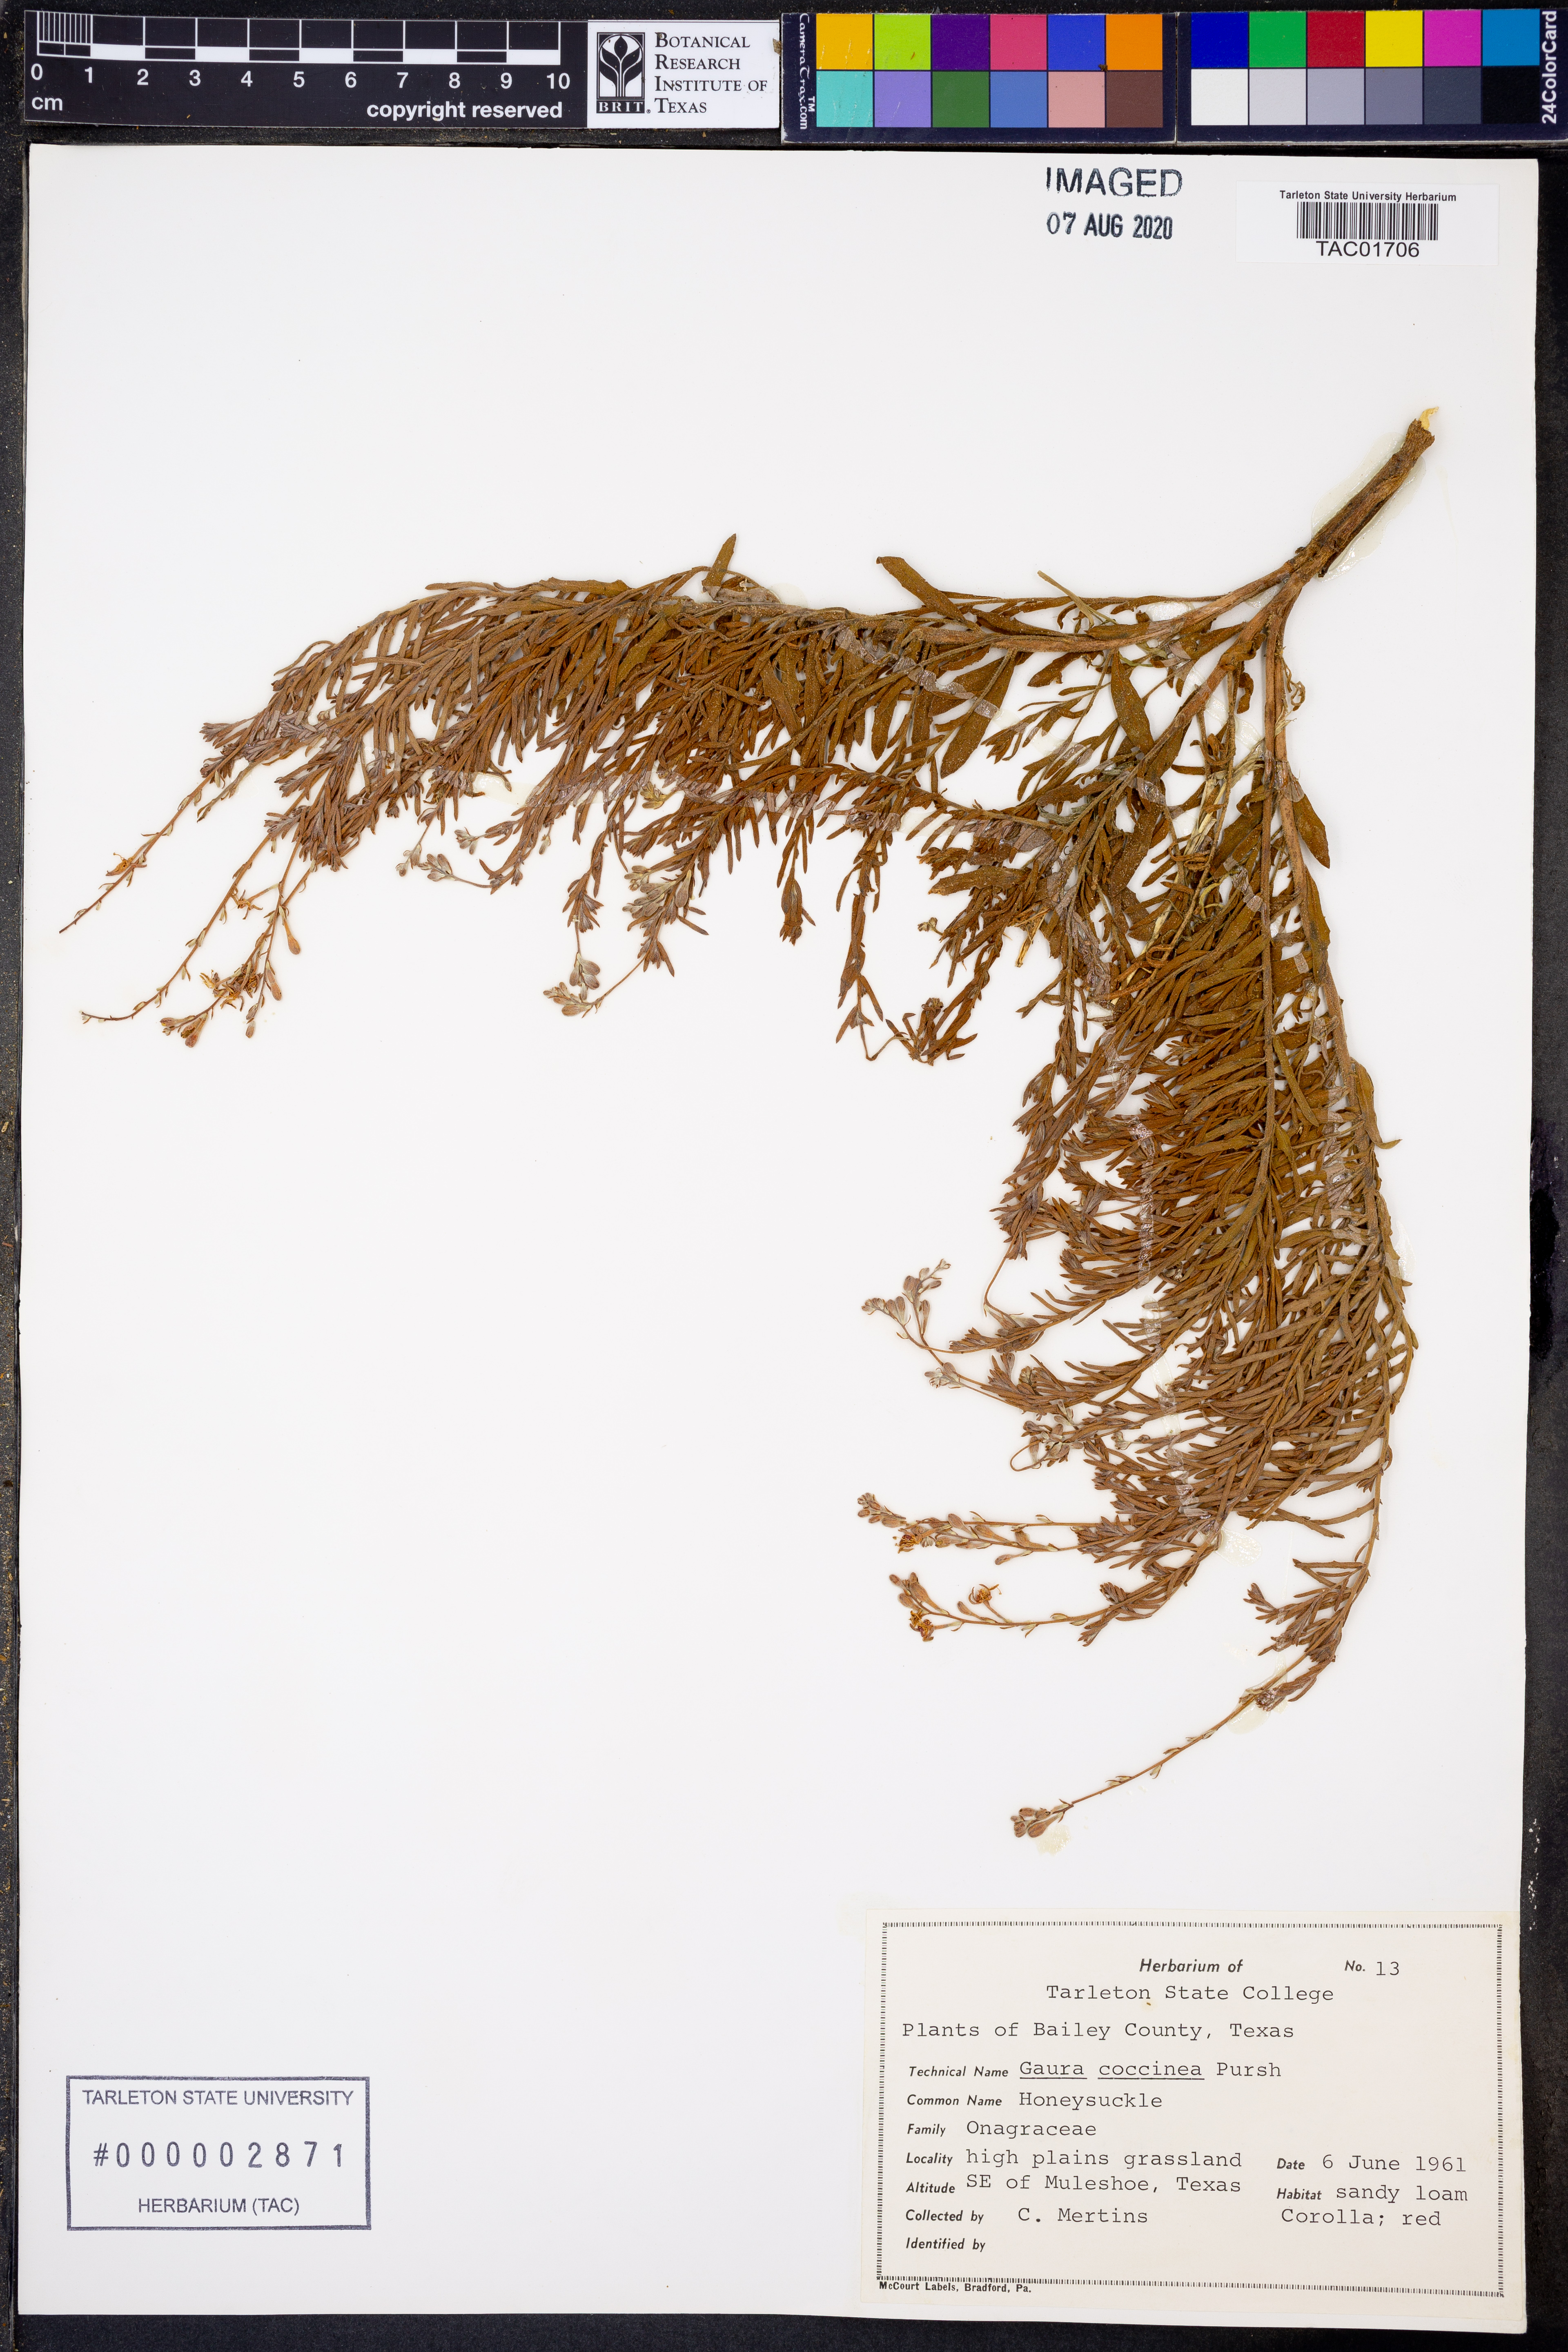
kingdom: Plantae
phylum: Tracheophyta
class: Magnoliopsida
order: Myrtales
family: Onagraceae
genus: Oenothera
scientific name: Oenothera suffrutescens
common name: Scarlet beeblossom
